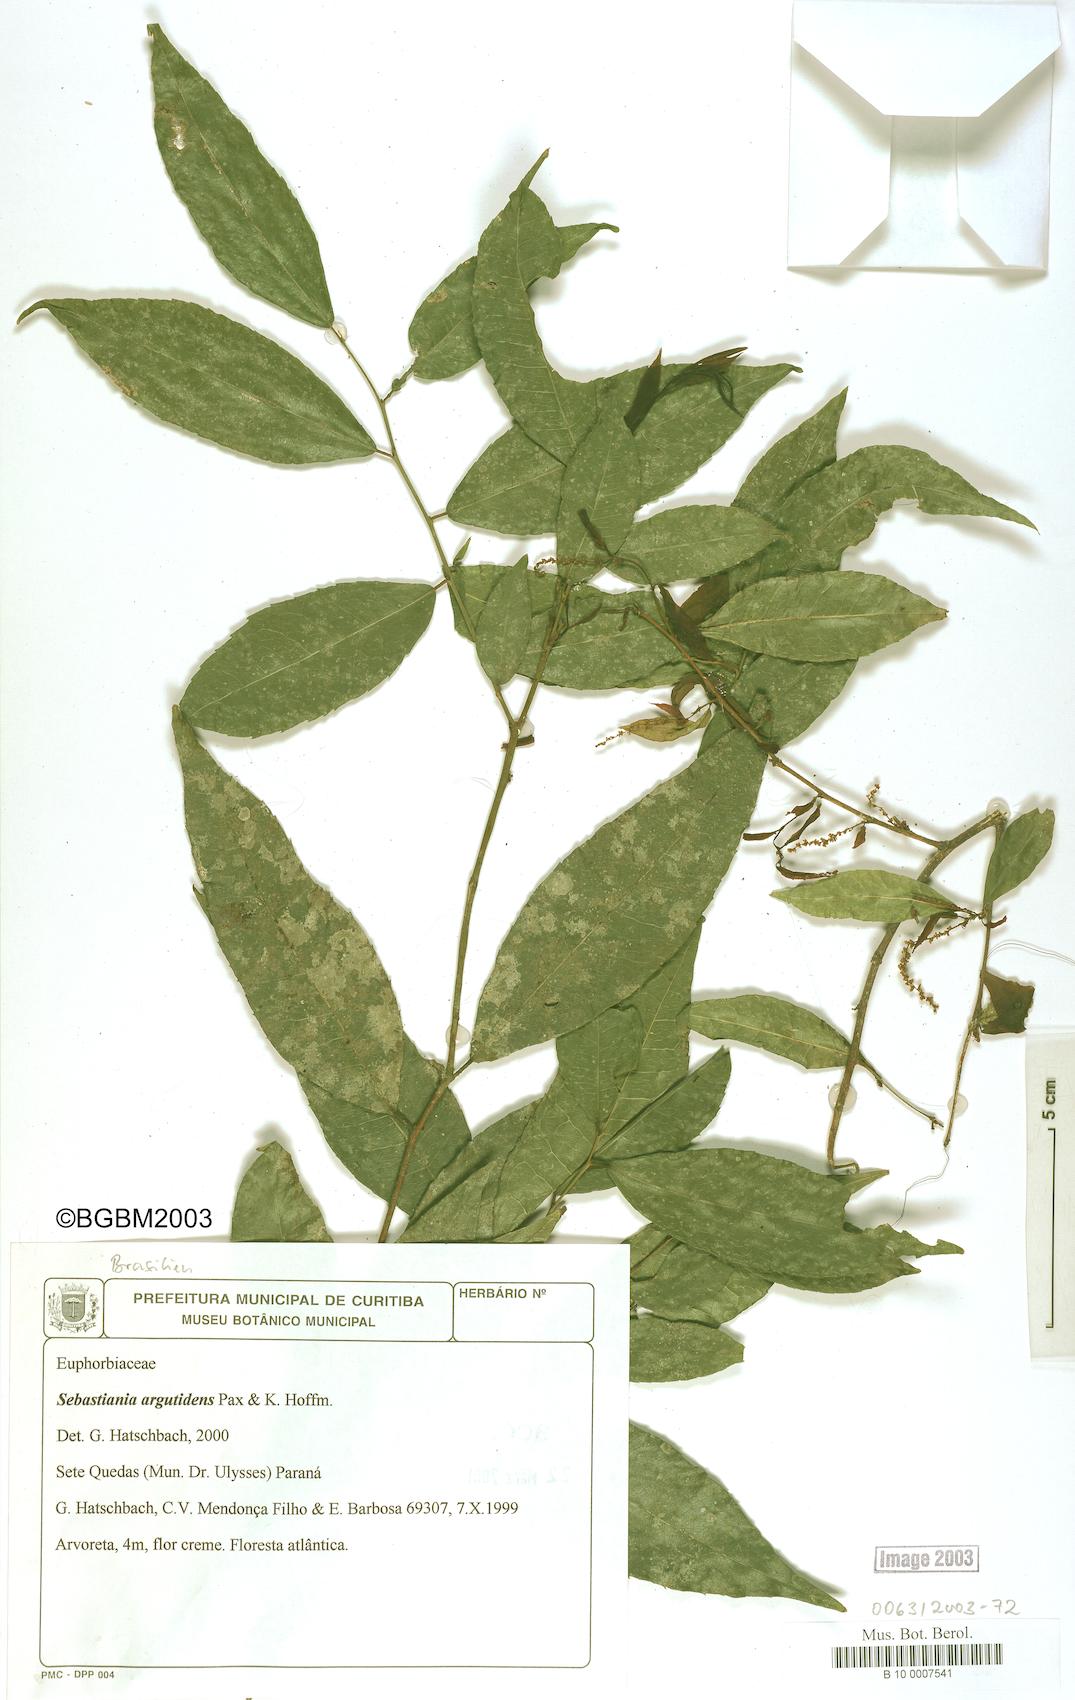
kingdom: Plantae
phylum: Tracheophyta
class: Magnoliopsida
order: Malpighiales
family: Euphorbiaceae
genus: Sebastiania
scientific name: Sebastiania argutidens
